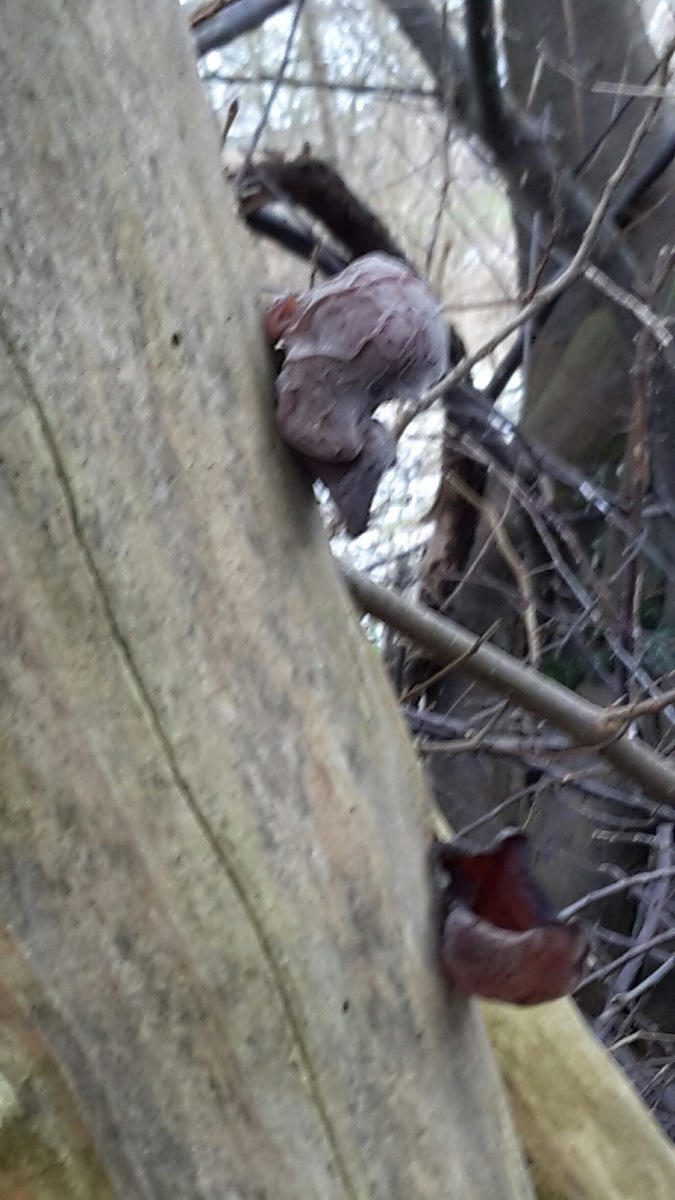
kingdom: Fungi
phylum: Basidiomycota
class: Agaricomycetes
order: Auriculariales
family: Auriculariaceae
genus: Auricularia
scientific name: Auricularia auricula-judae
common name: almindelig judasøre
